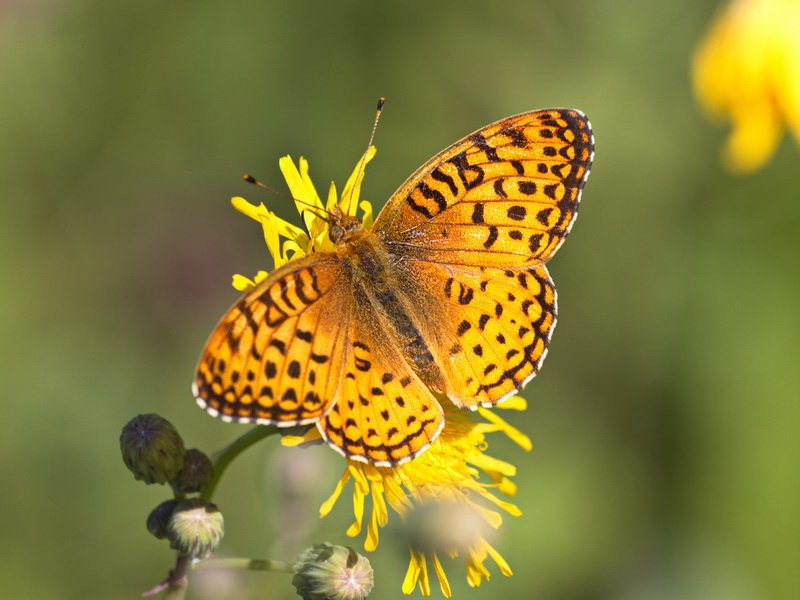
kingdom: Animalia
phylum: Arthropoda
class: Insecta
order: Lepidoptera
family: Nymphalidae
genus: Speyeria
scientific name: Speyeria aphrodite
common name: Aphrodite Fritillary
